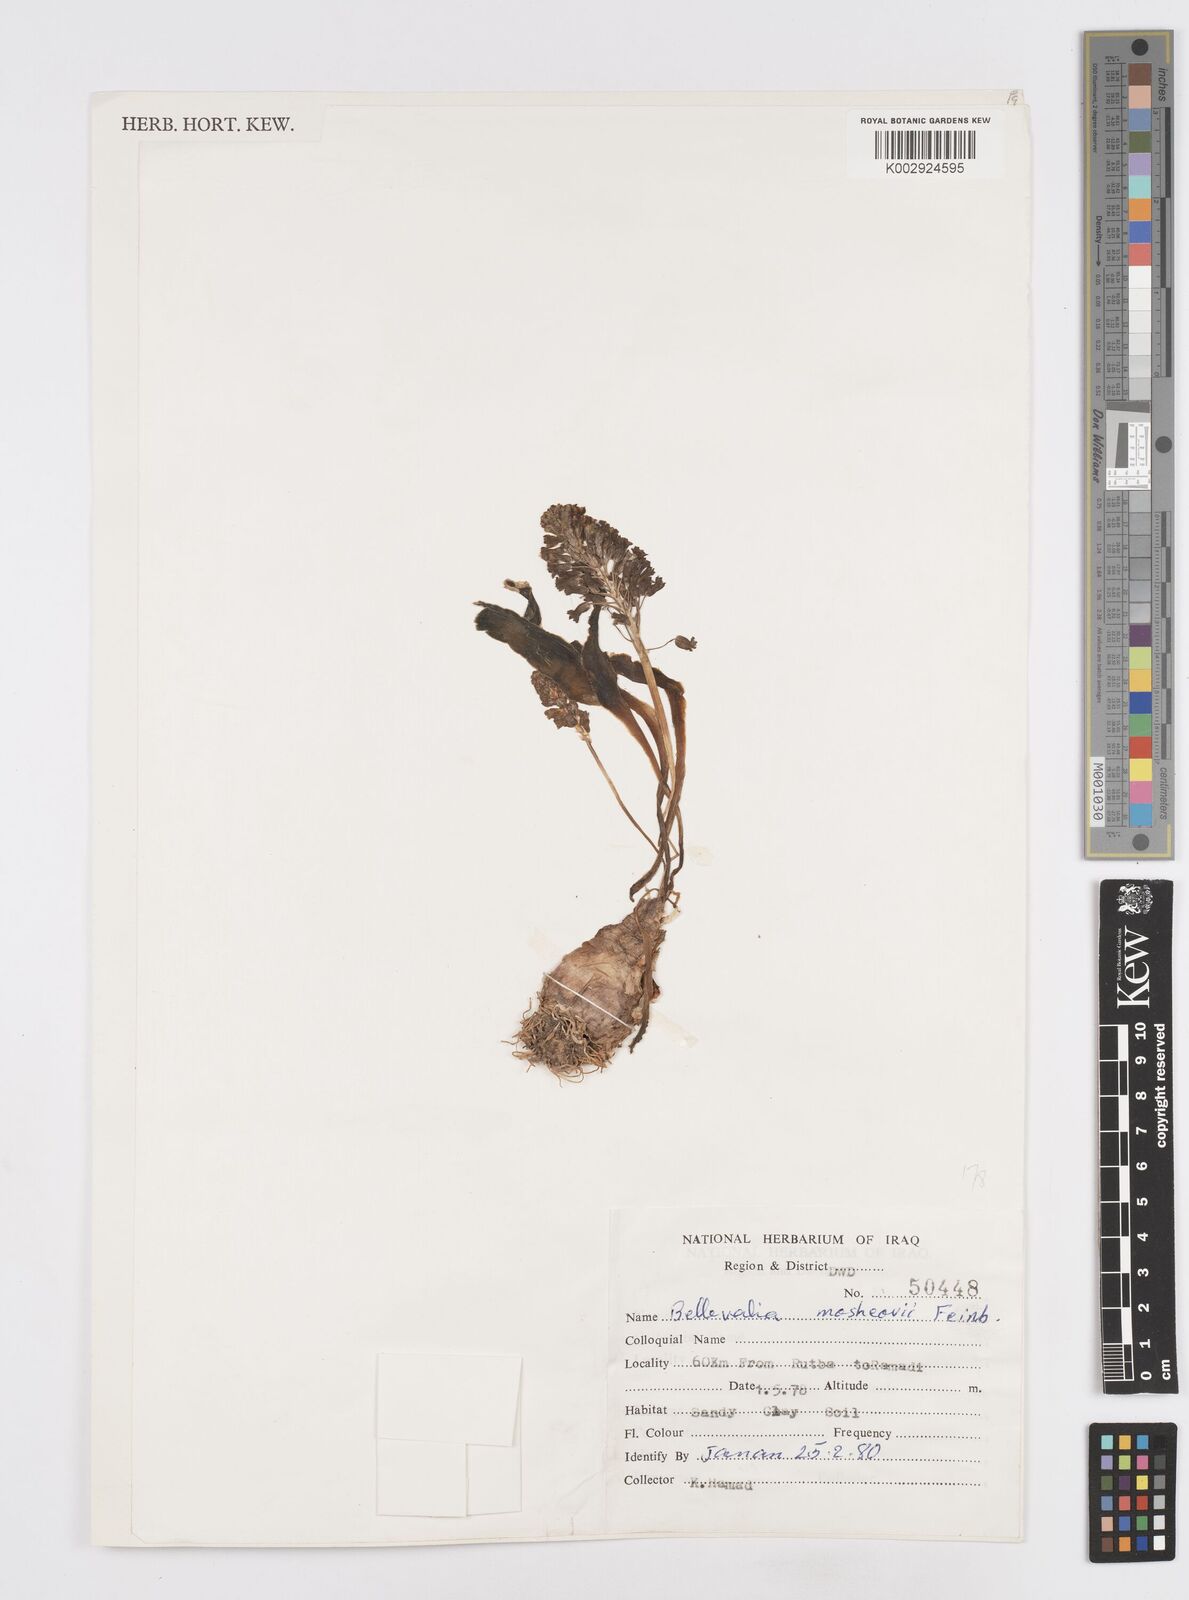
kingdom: Plantae
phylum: Tracheophyta
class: Liliopsida
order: Asparagales
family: Asparagaceae
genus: Bellevalia
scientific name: Bellevalia mosheovii
